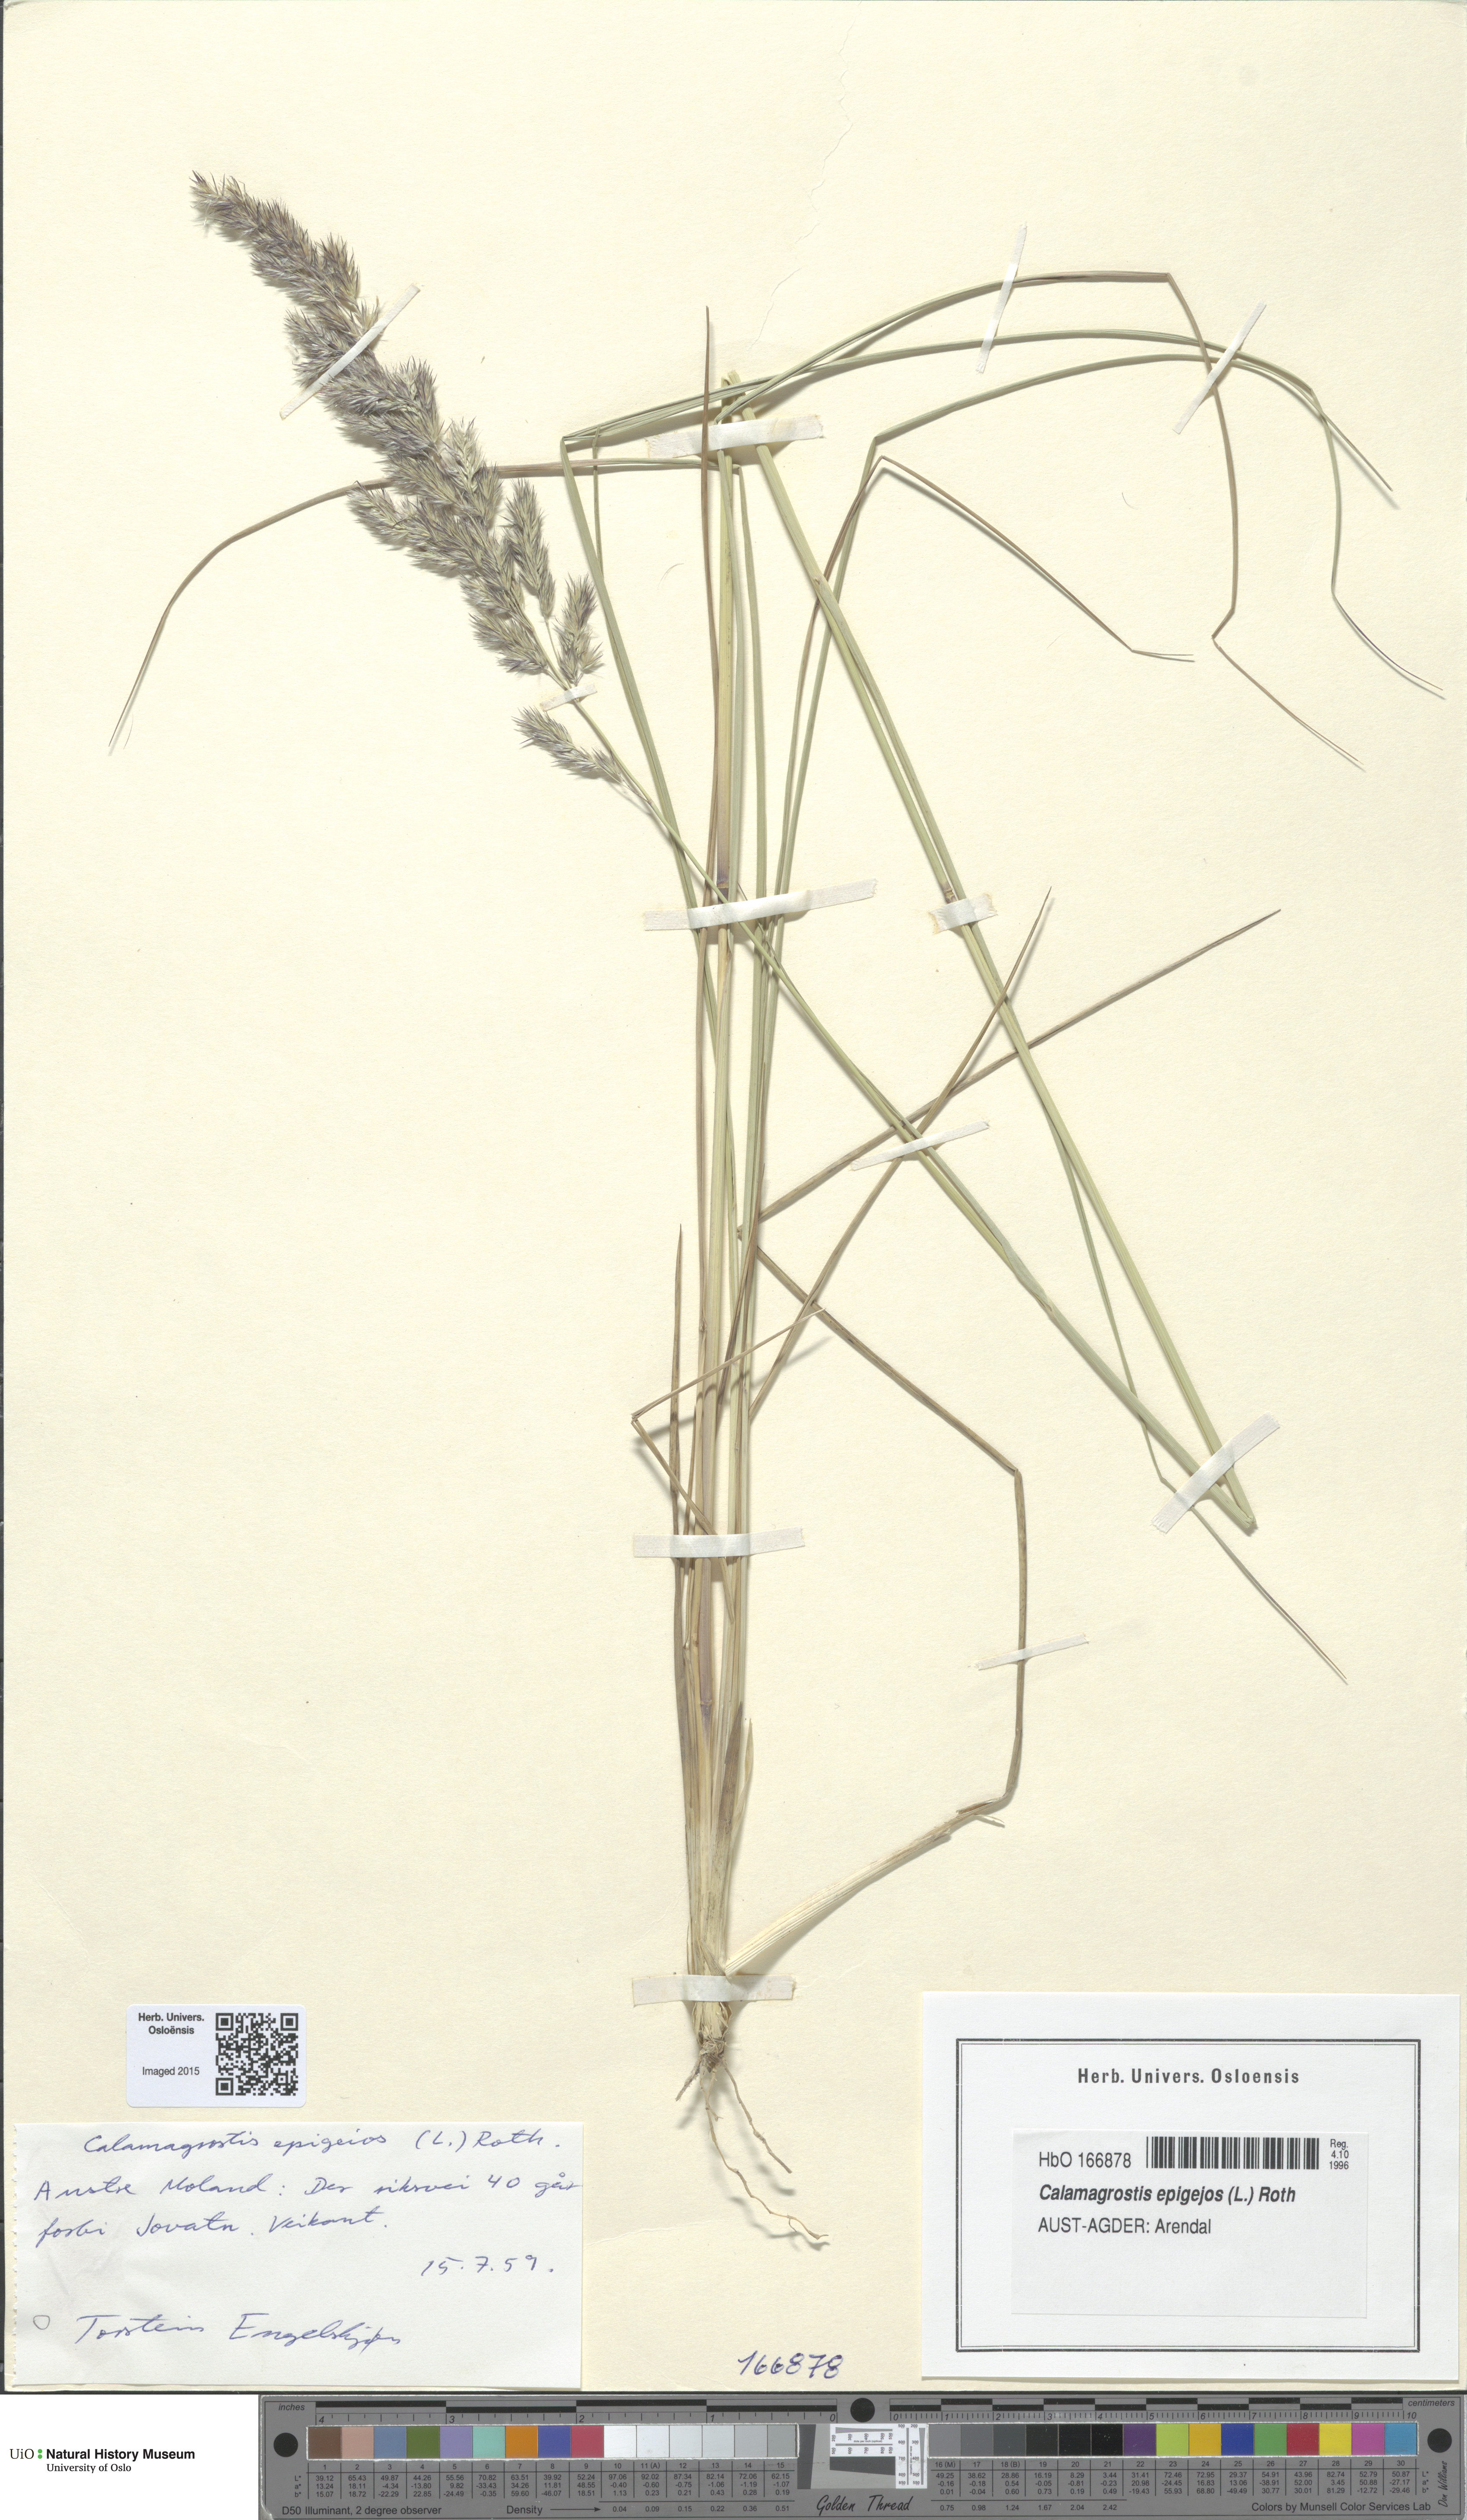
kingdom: Plantae
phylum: Tracheophyta
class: Liliopsida
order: Poales
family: Poaceae
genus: Calamagrostis
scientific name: Calamagrostis epigejos
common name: Wood small-reed
